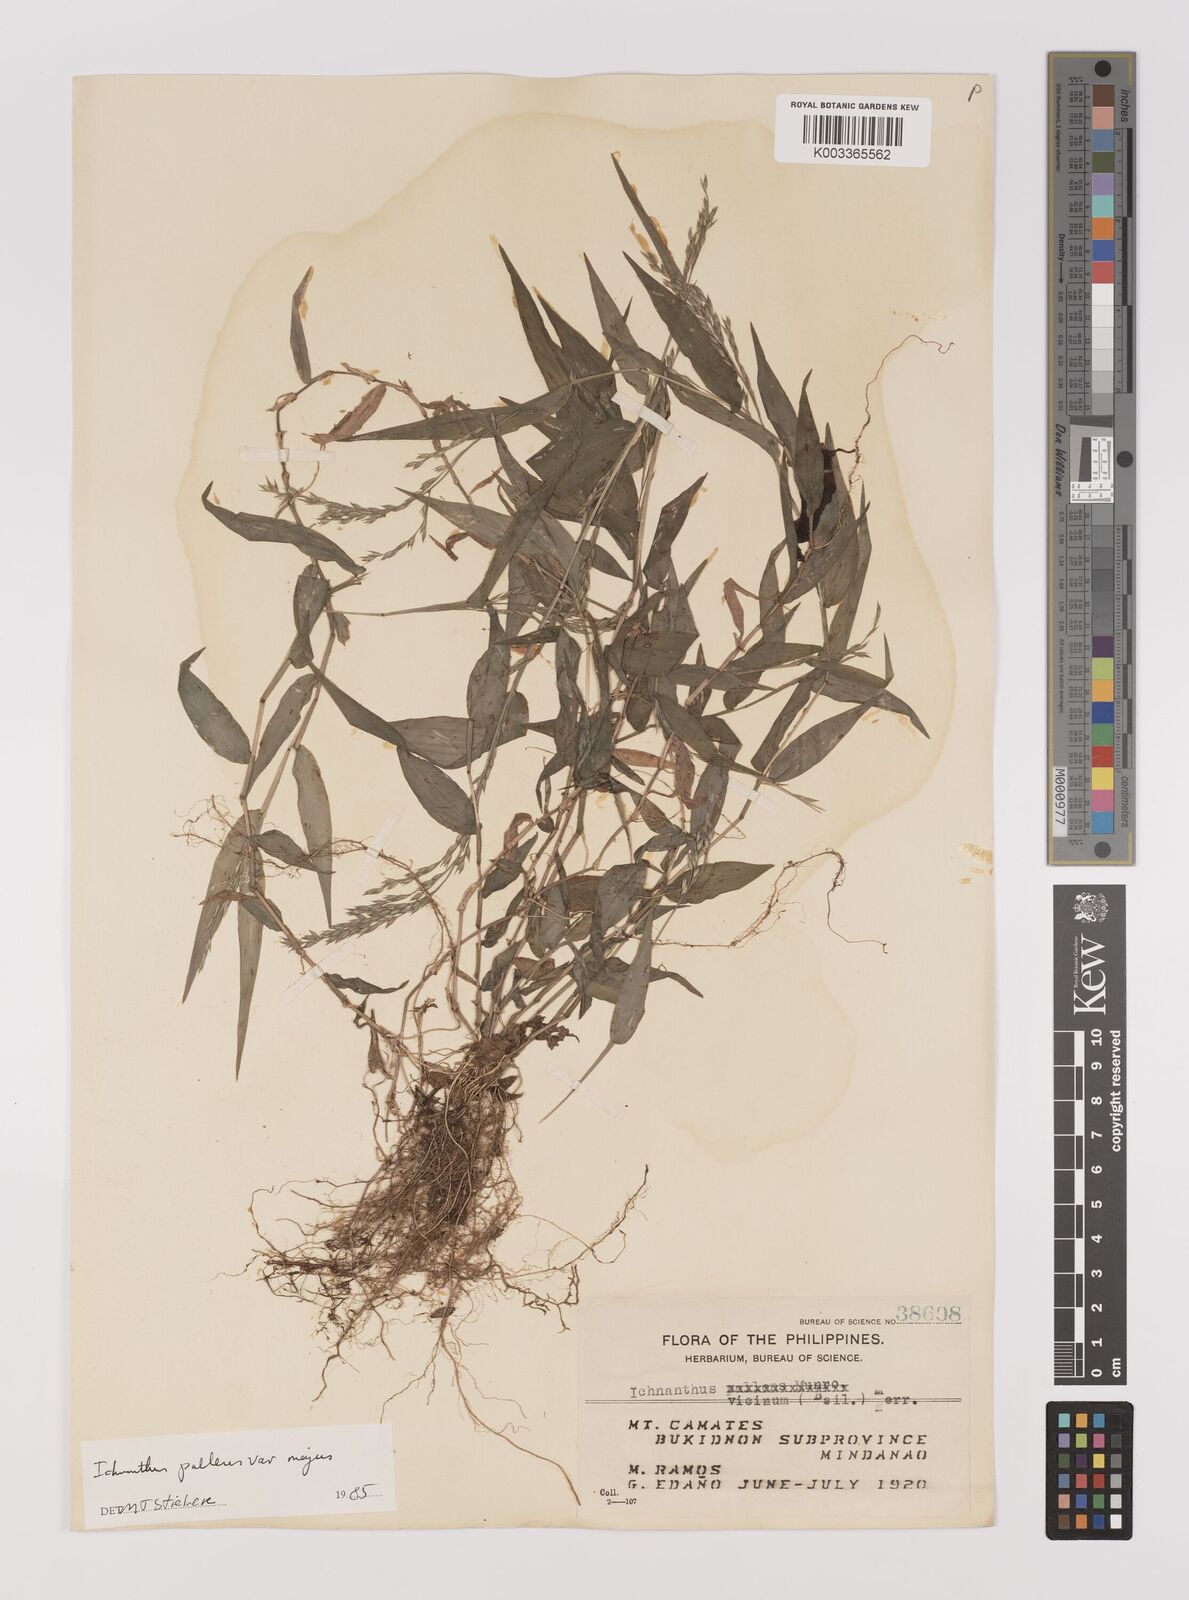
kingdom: Plantae
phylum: Tracheophyta
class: Liliopsida
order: Poales
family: Poaceae
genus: Ichnanthus
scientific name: Ichnanthus pallens
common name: Water grass
